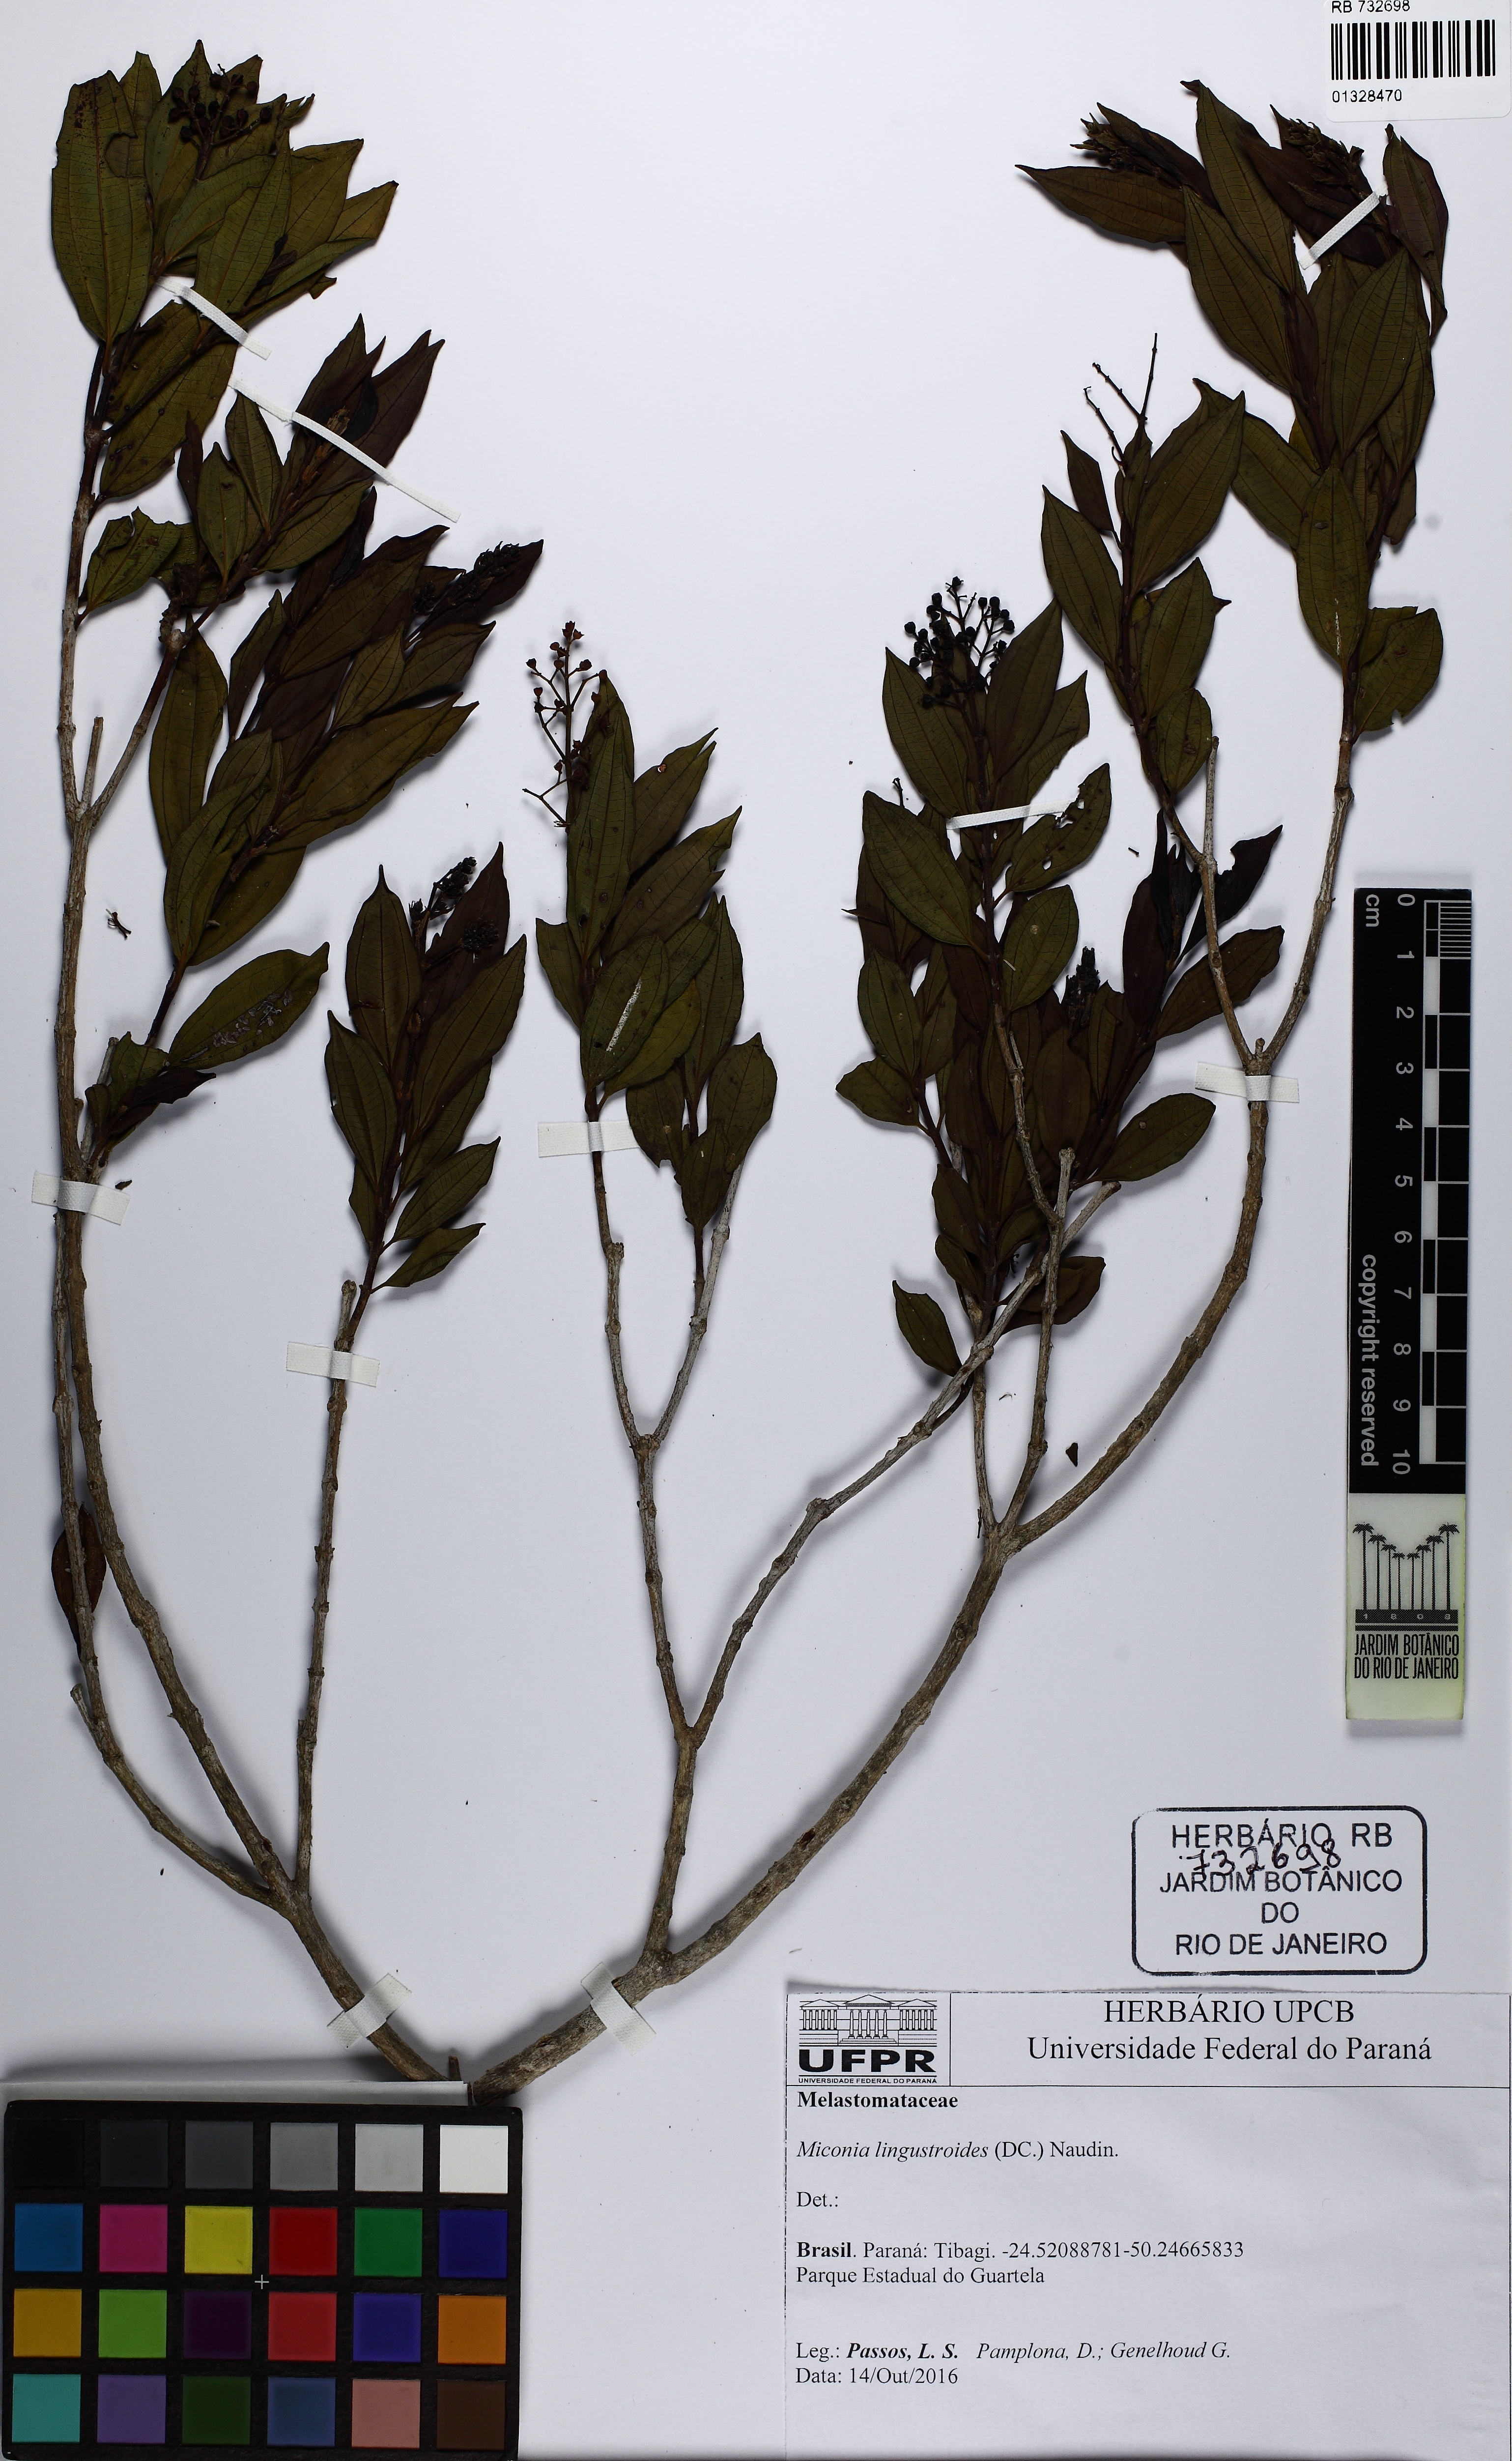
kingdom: Plantae
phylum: Tracheophyta
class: Magnoliopsida
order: Myrtales
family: Melastomataceae
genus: Miconia
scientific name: Miconia
